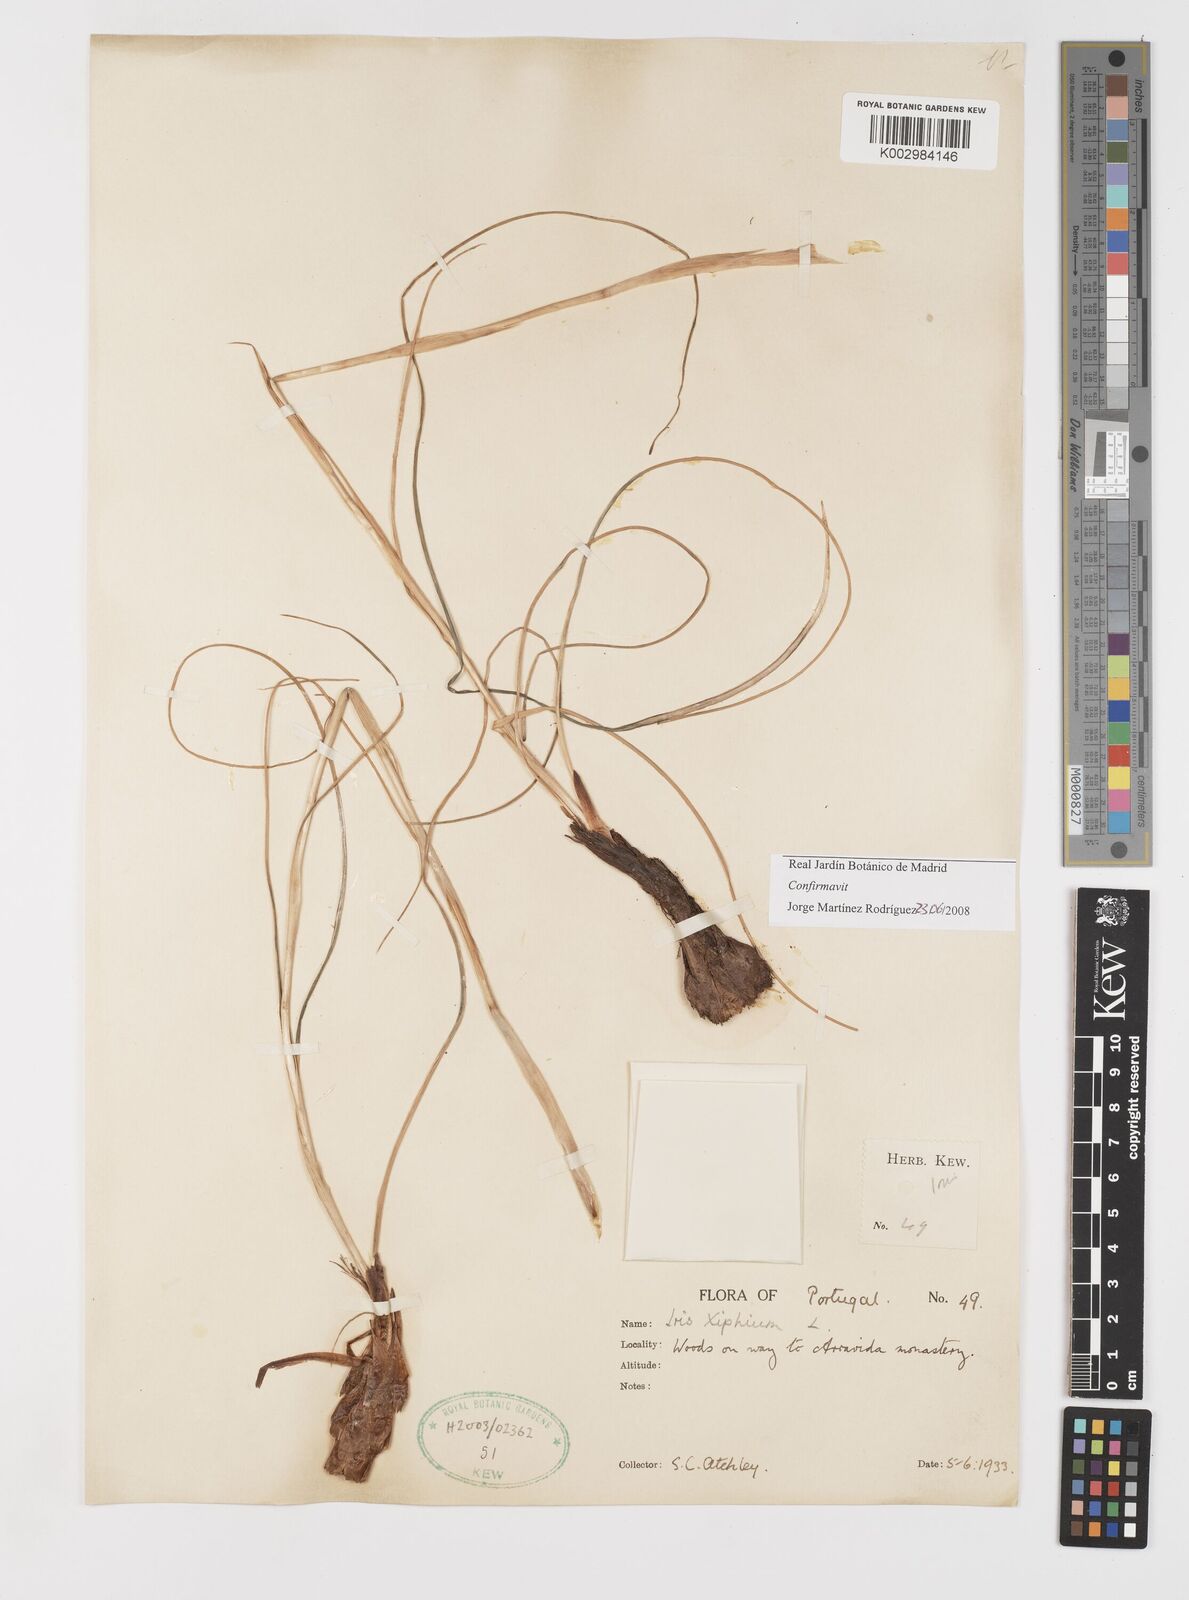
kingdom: Plantae
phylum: Tracheophyta
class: Liliopsida
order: Asparagales
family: Iridaceae
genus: Iris
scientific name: Iris xiphium
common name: Spanish iris
